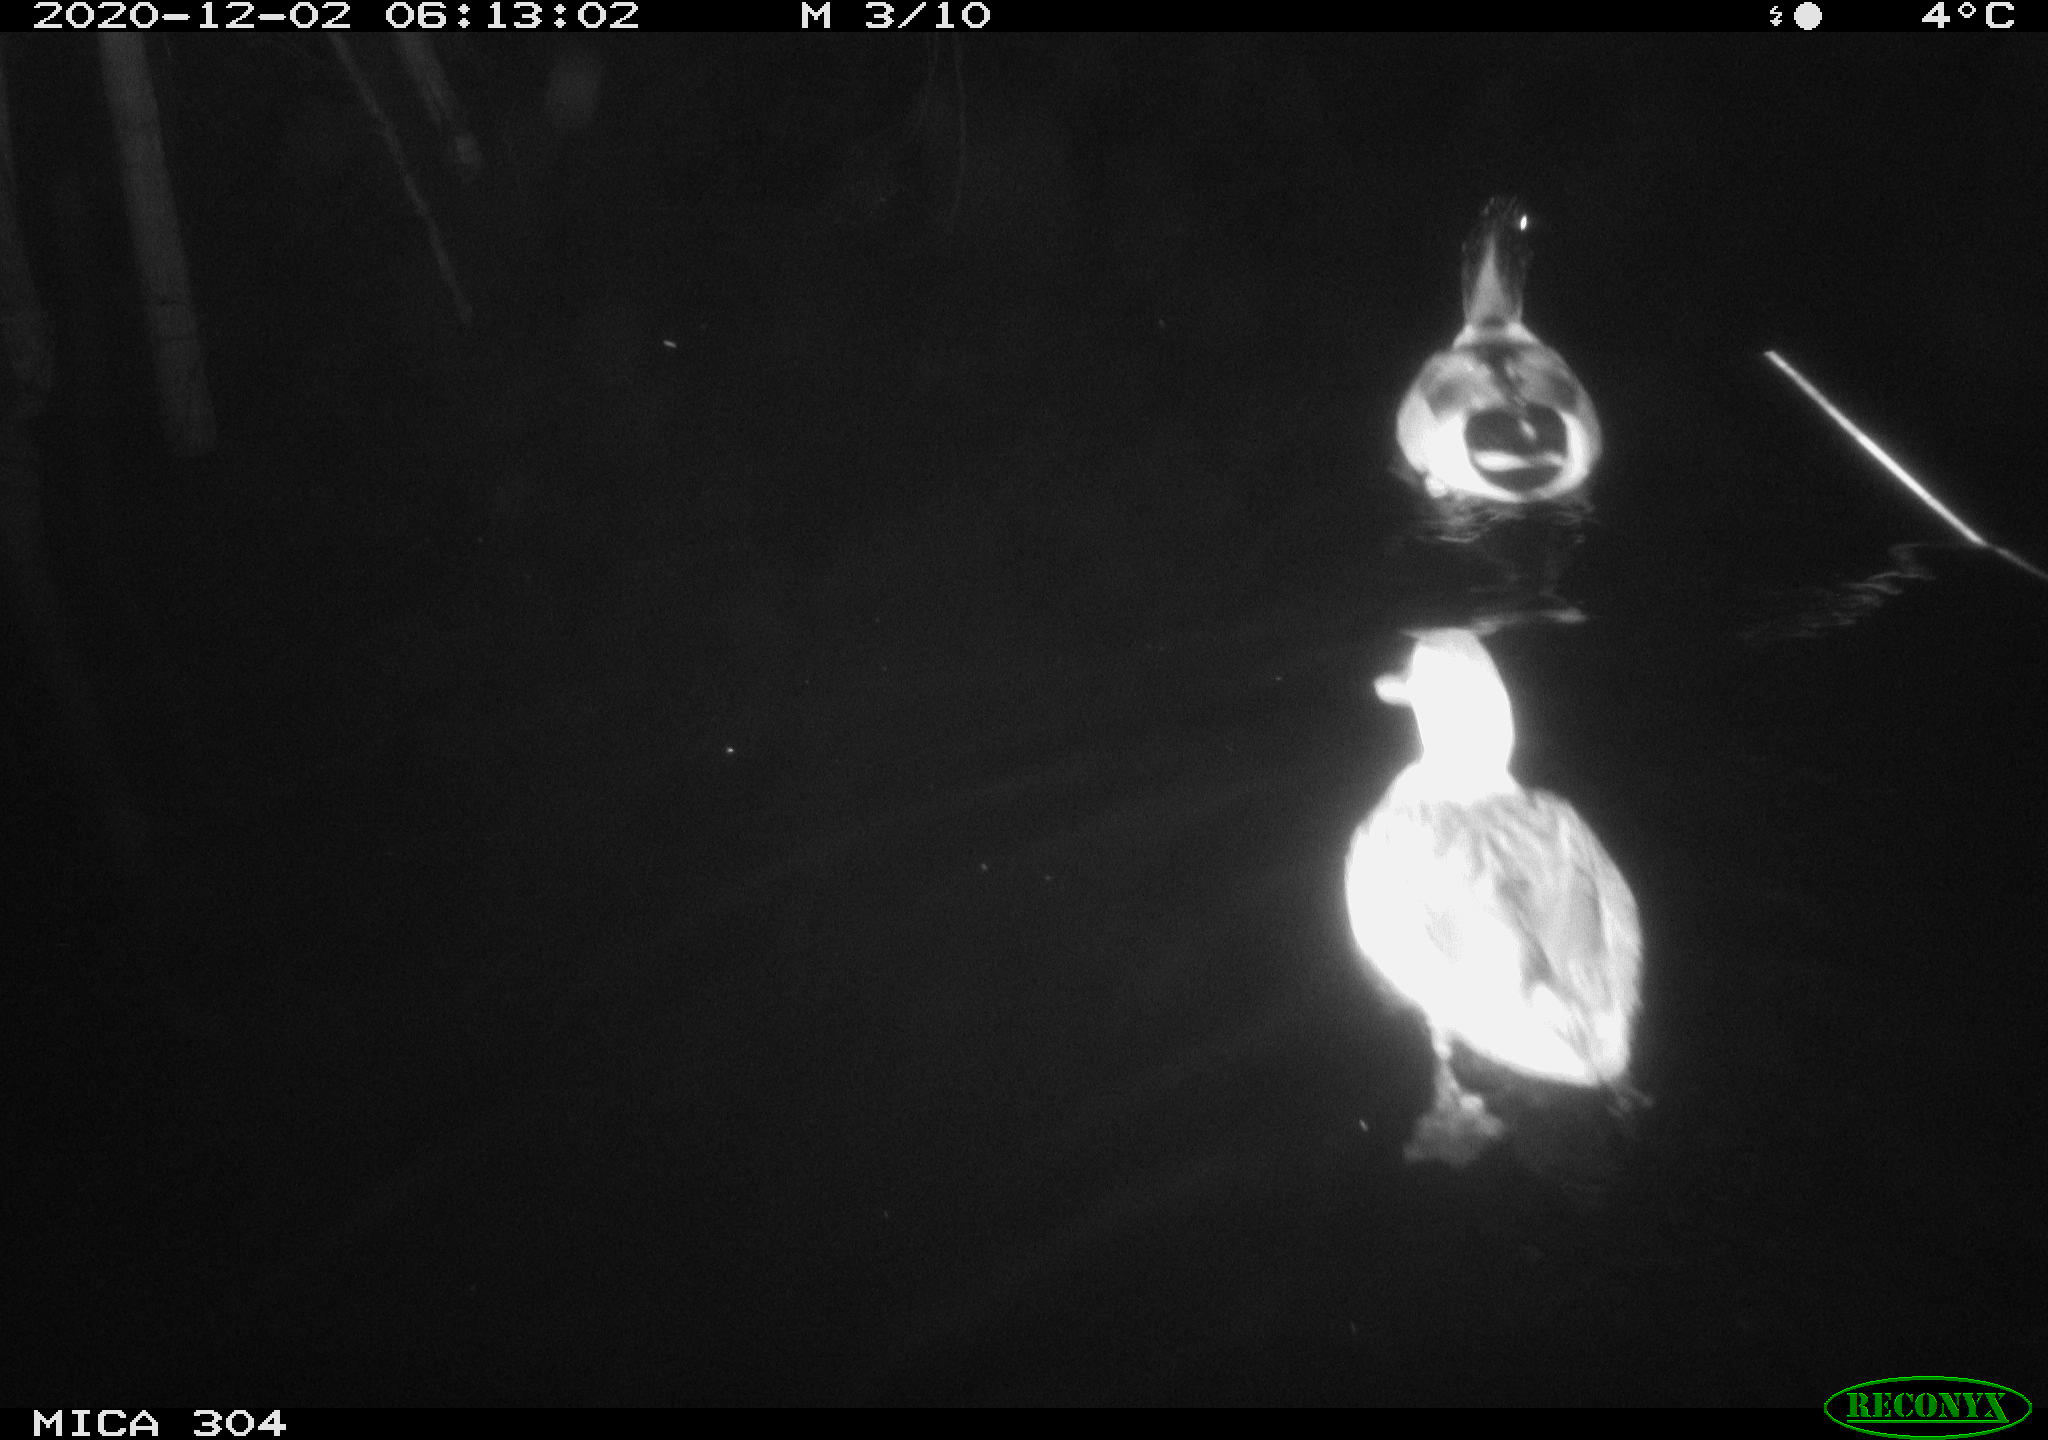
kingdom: Animalia
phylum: Chordata
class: Aves
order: Anseriformes
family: Anatidae
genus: Anas
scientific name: Anas platyrhynchos
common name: Mallard
